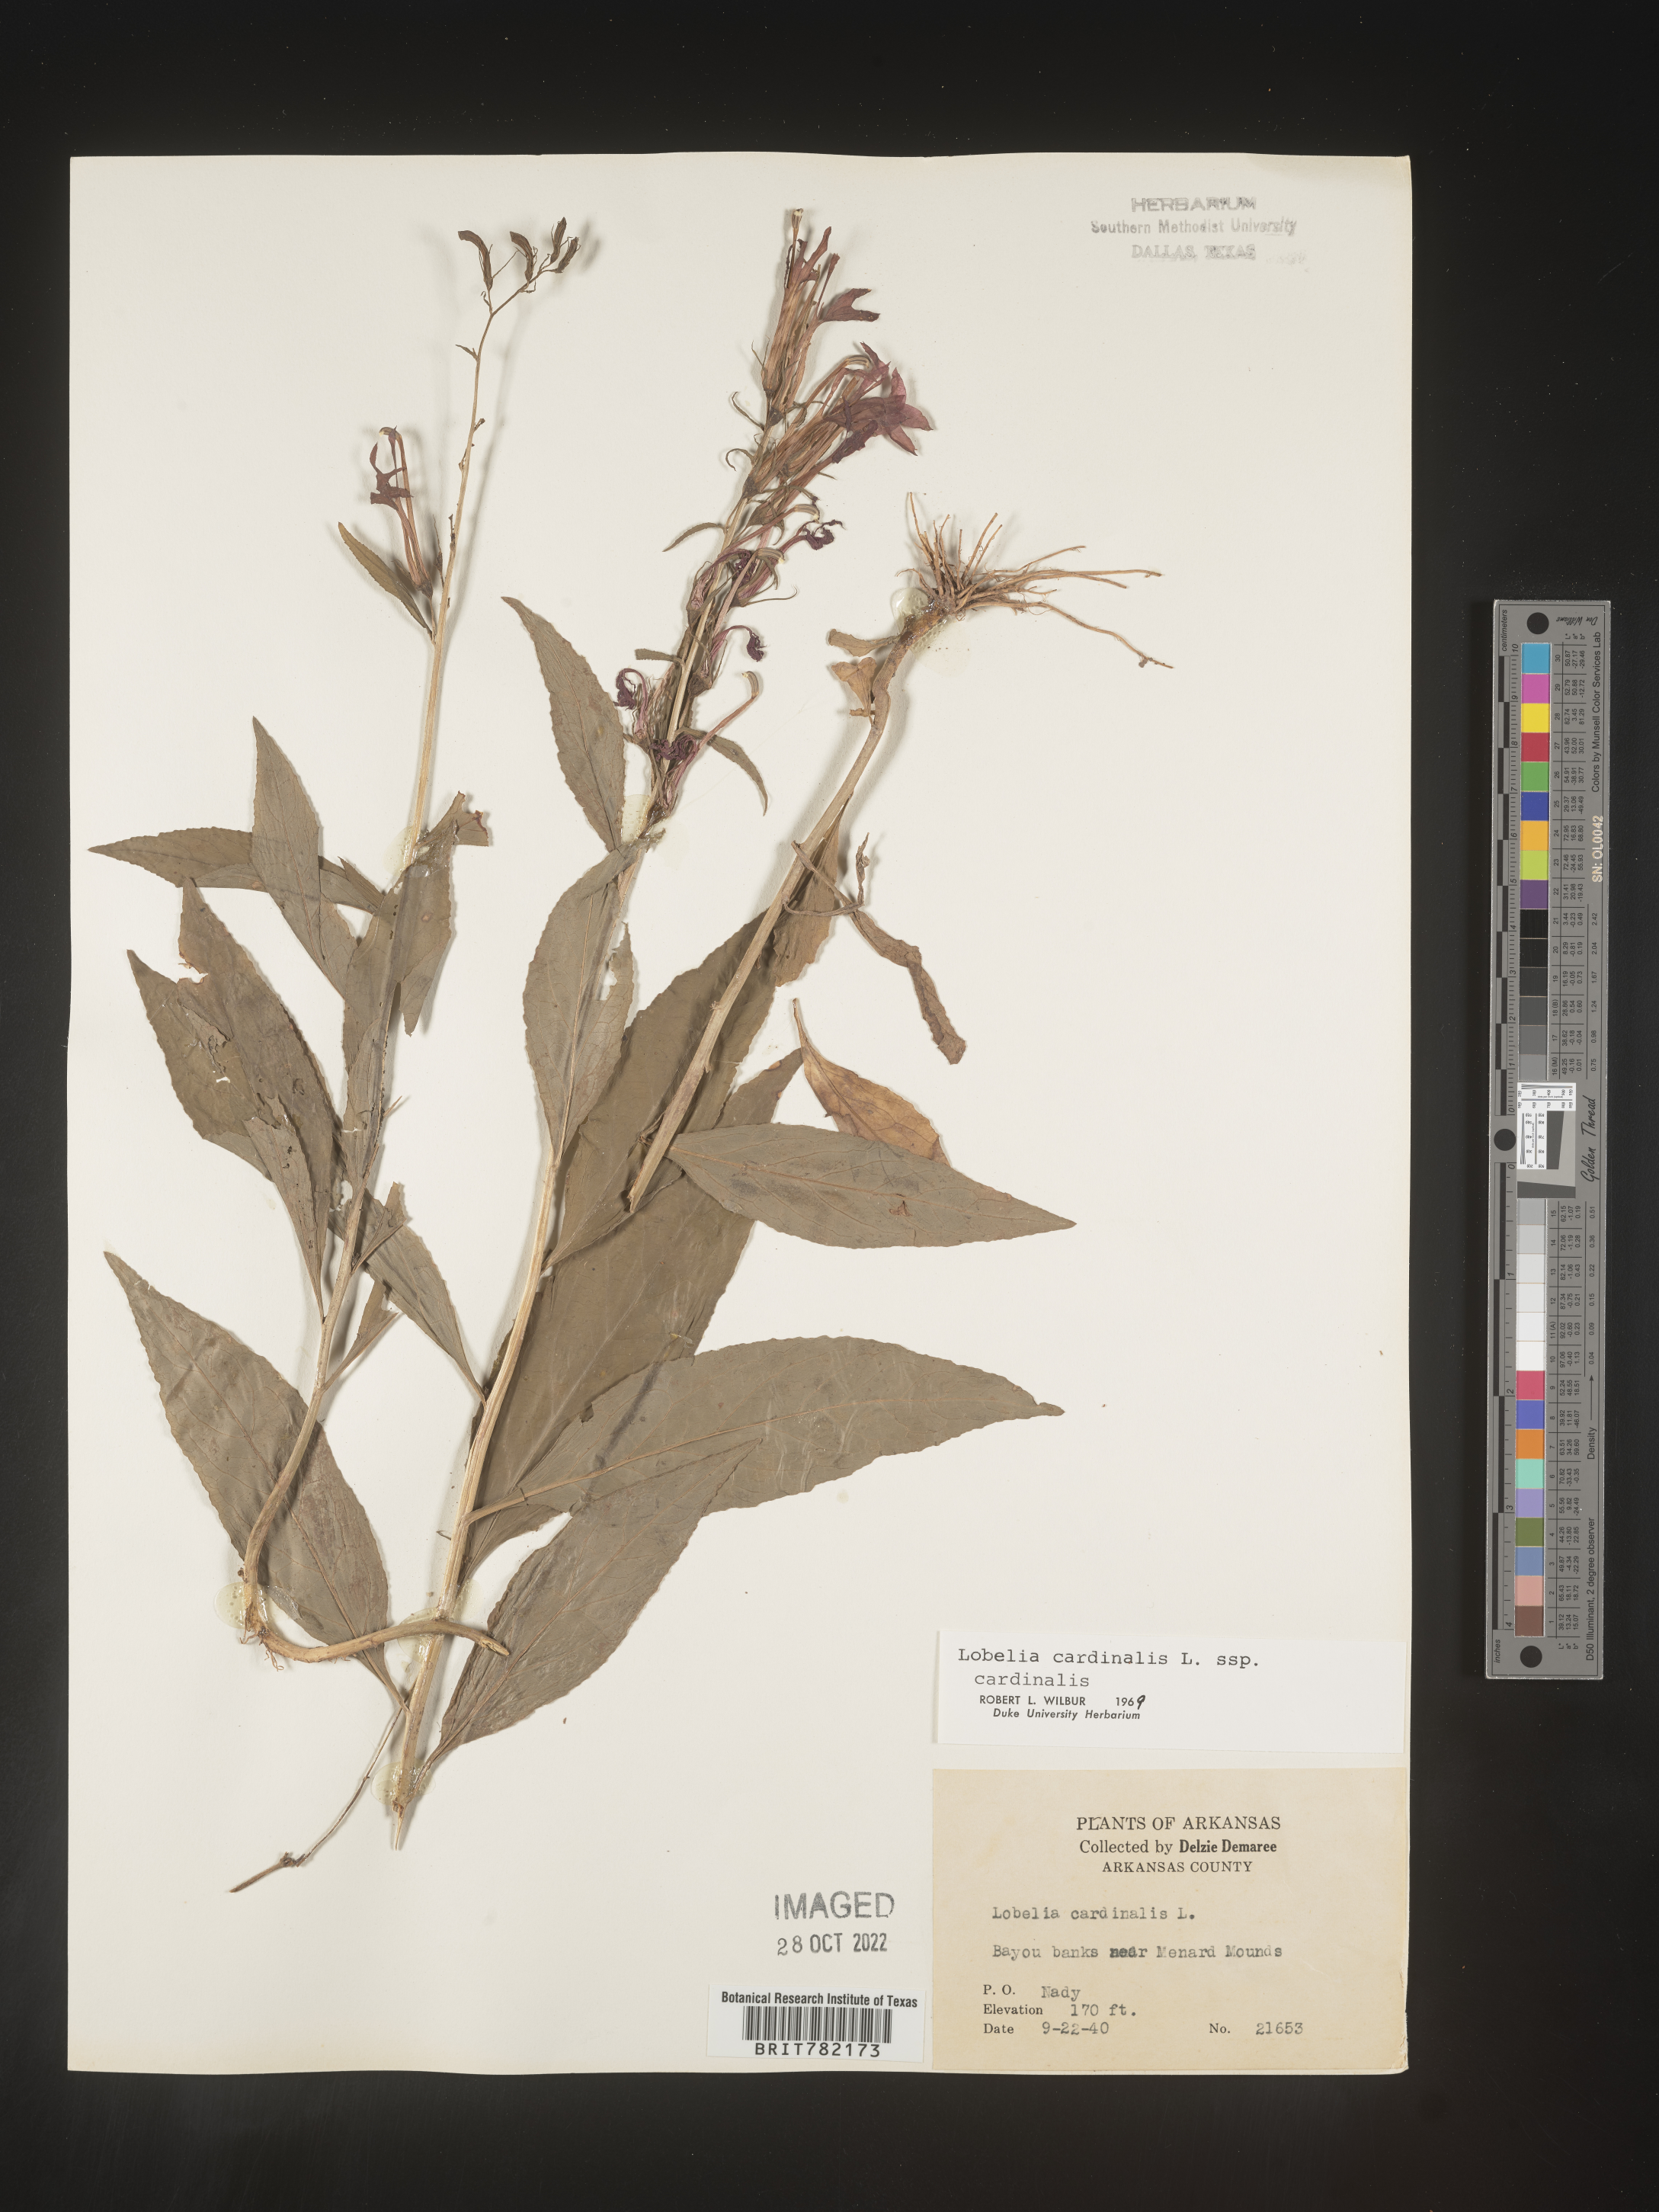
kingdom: Plantae
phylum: Tracheophyta
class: Magnoliopsida
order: Asterales
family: Campanulaceae
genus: Lobelia
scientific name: Lobelia cardinalis
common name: Cardinal flower
